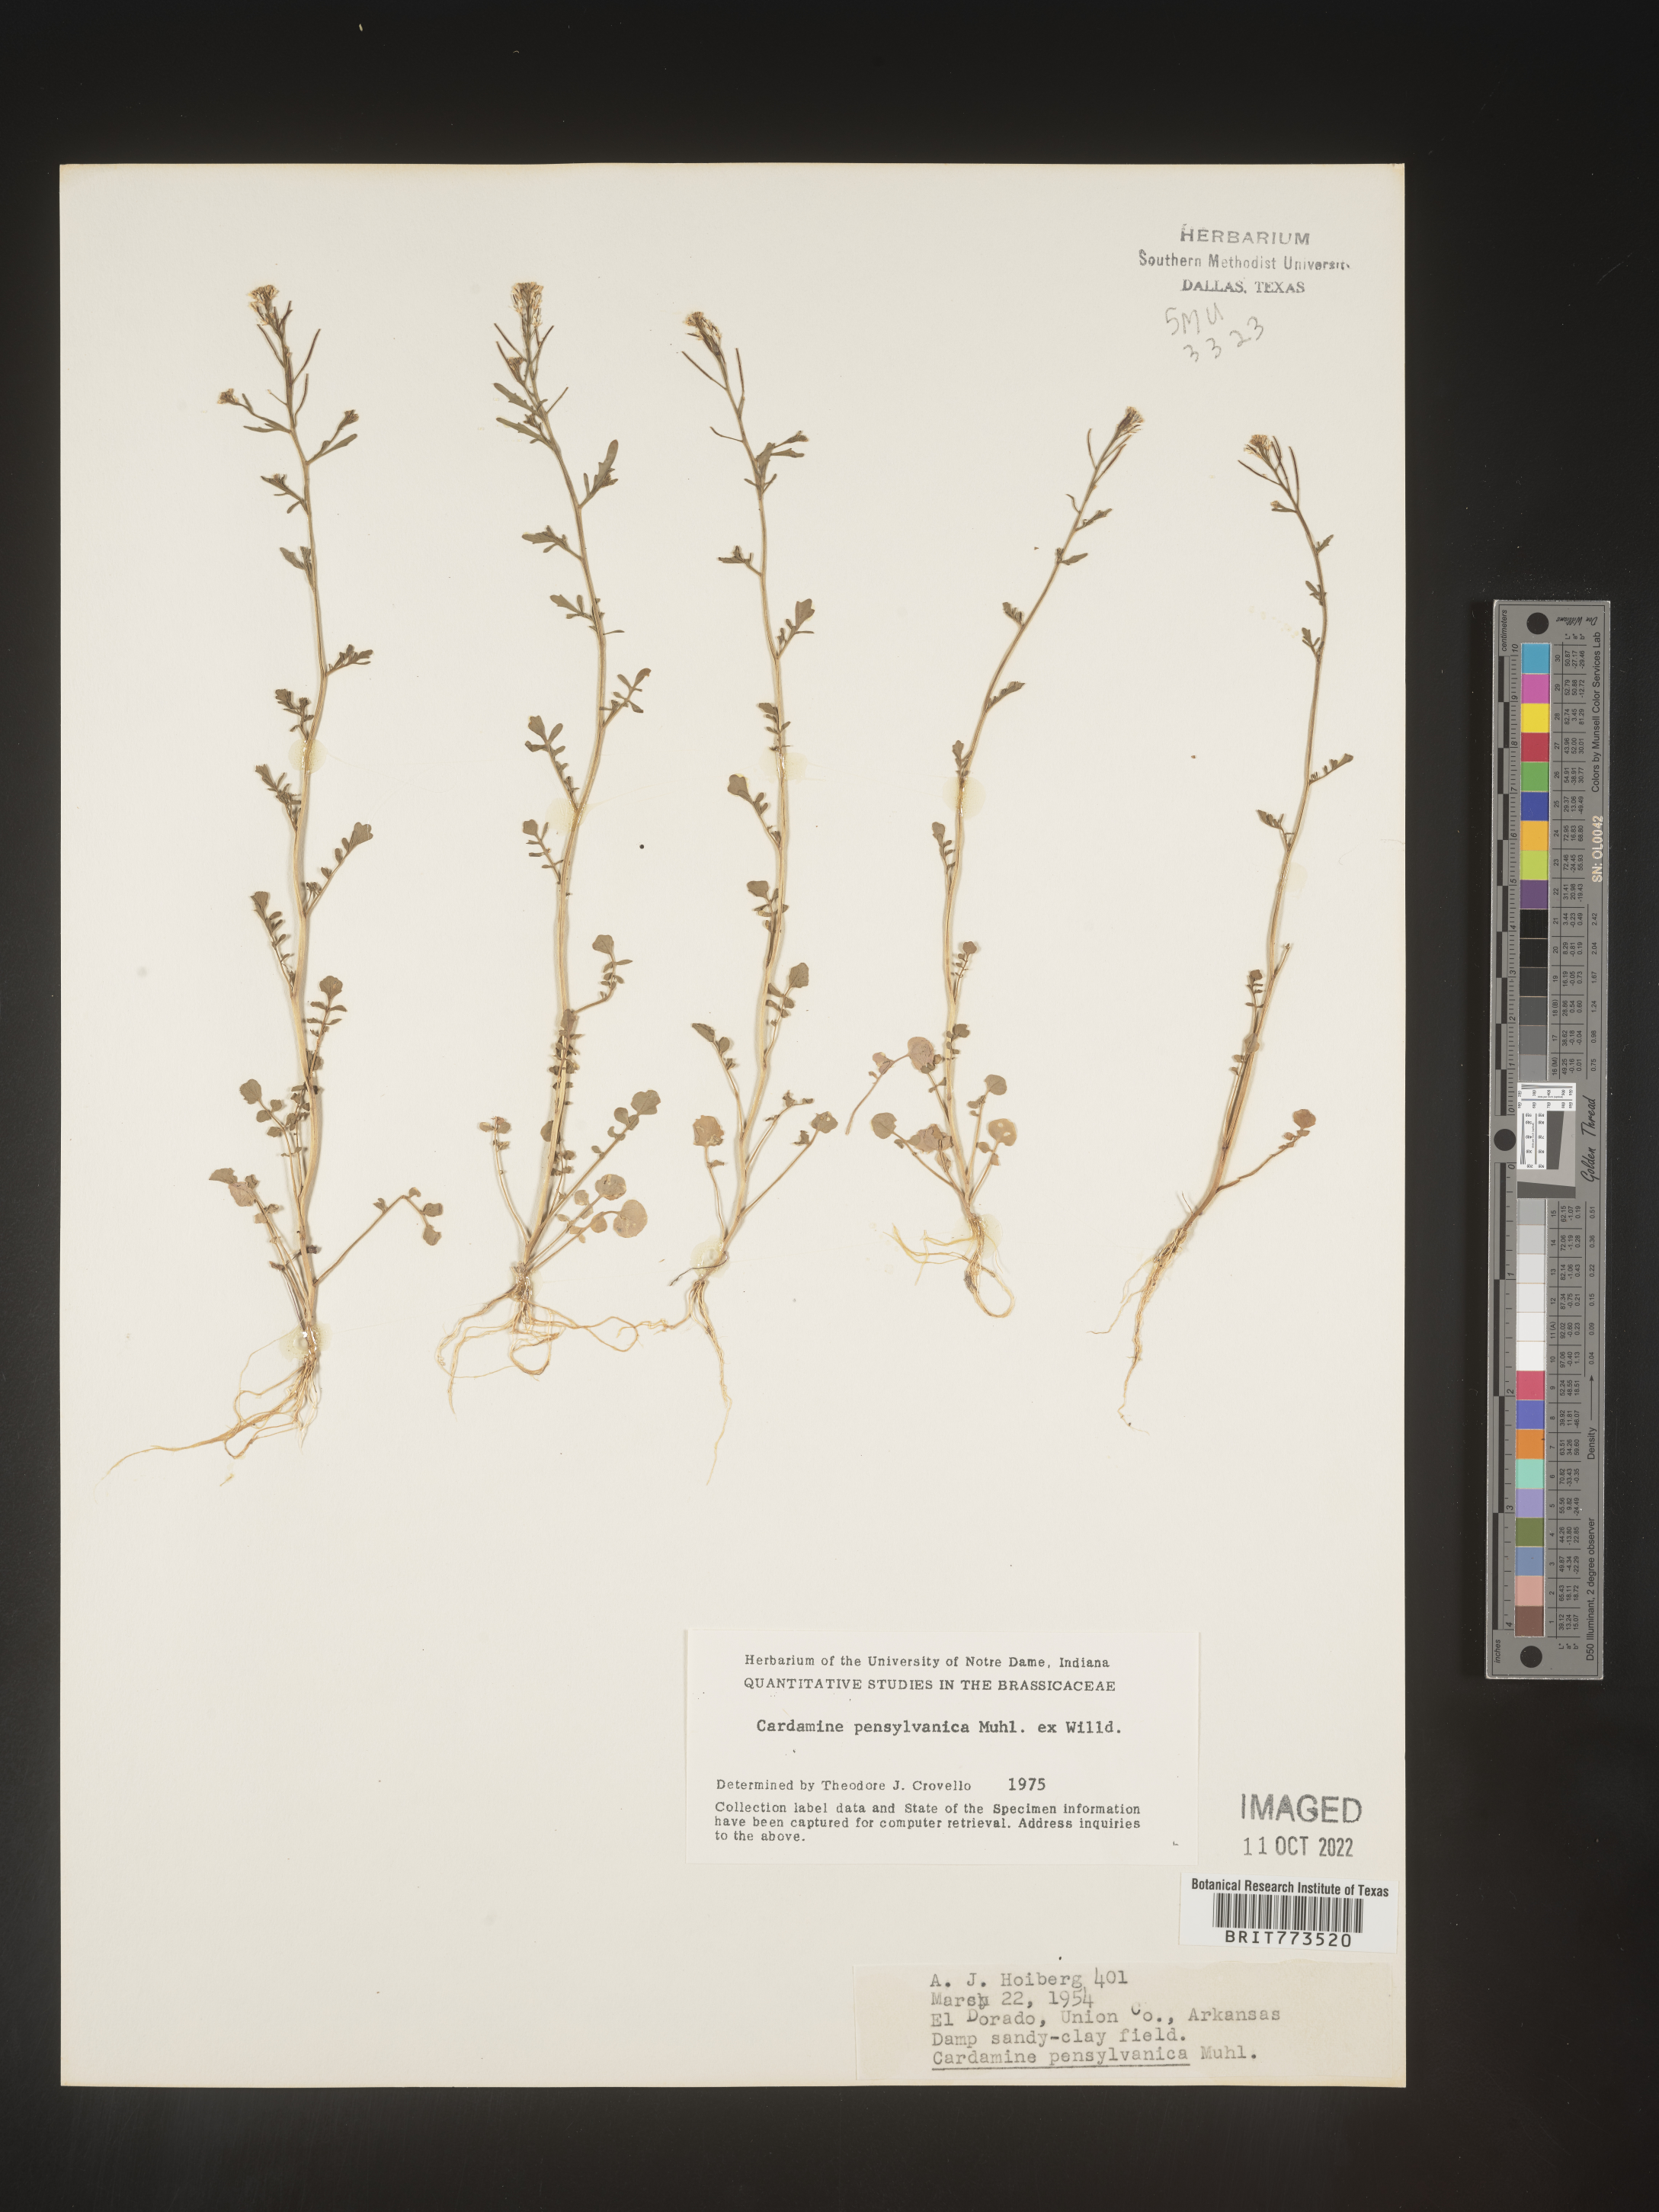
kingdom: Plantae
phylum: Tracheophyta
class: Magnoliopsida
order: Brassicales
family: Brassicaceae
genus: Cardamine
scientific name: Cardamine pensylvanica
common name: Pennsylvania bittercress
